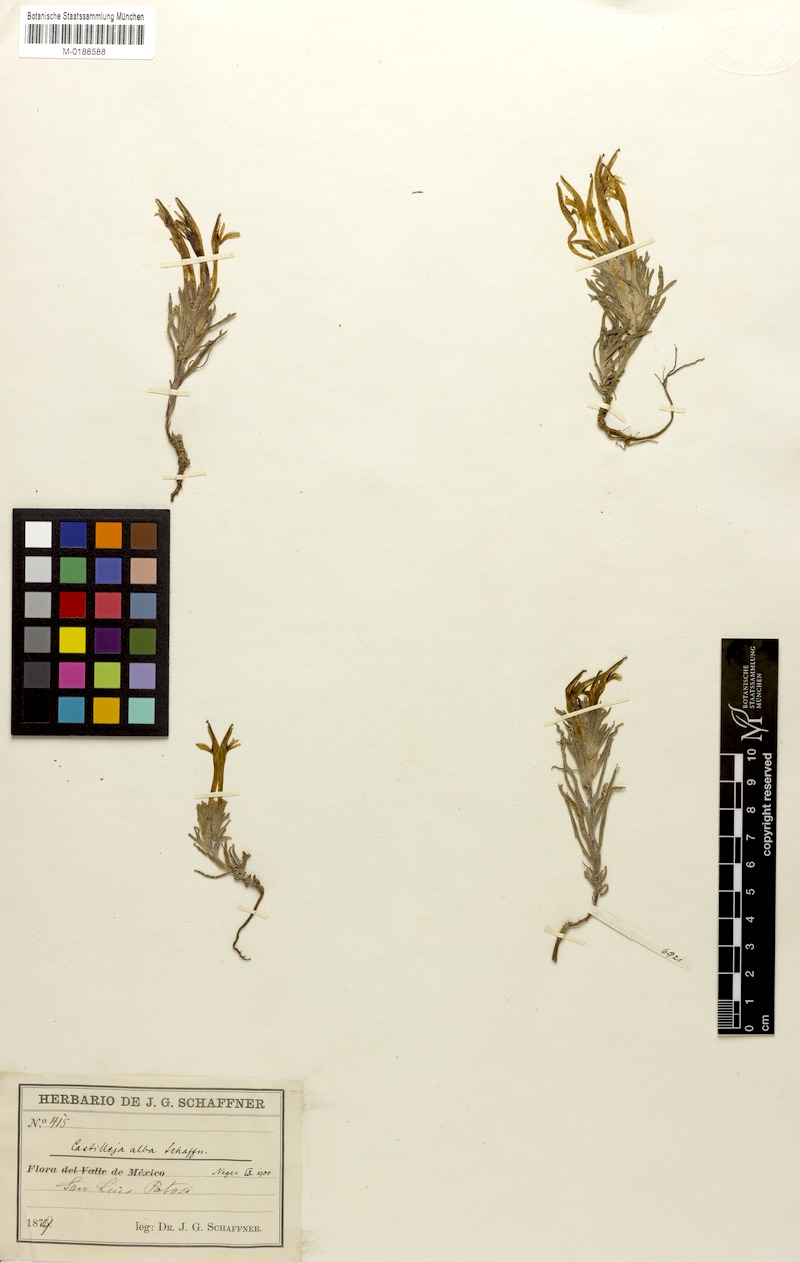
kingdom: Plantae
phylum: Tracheophyta
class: Magnoliopsida
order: Lamiales
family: Orobanchaceae
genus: Castilleja
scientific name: Castilleja mexicana
